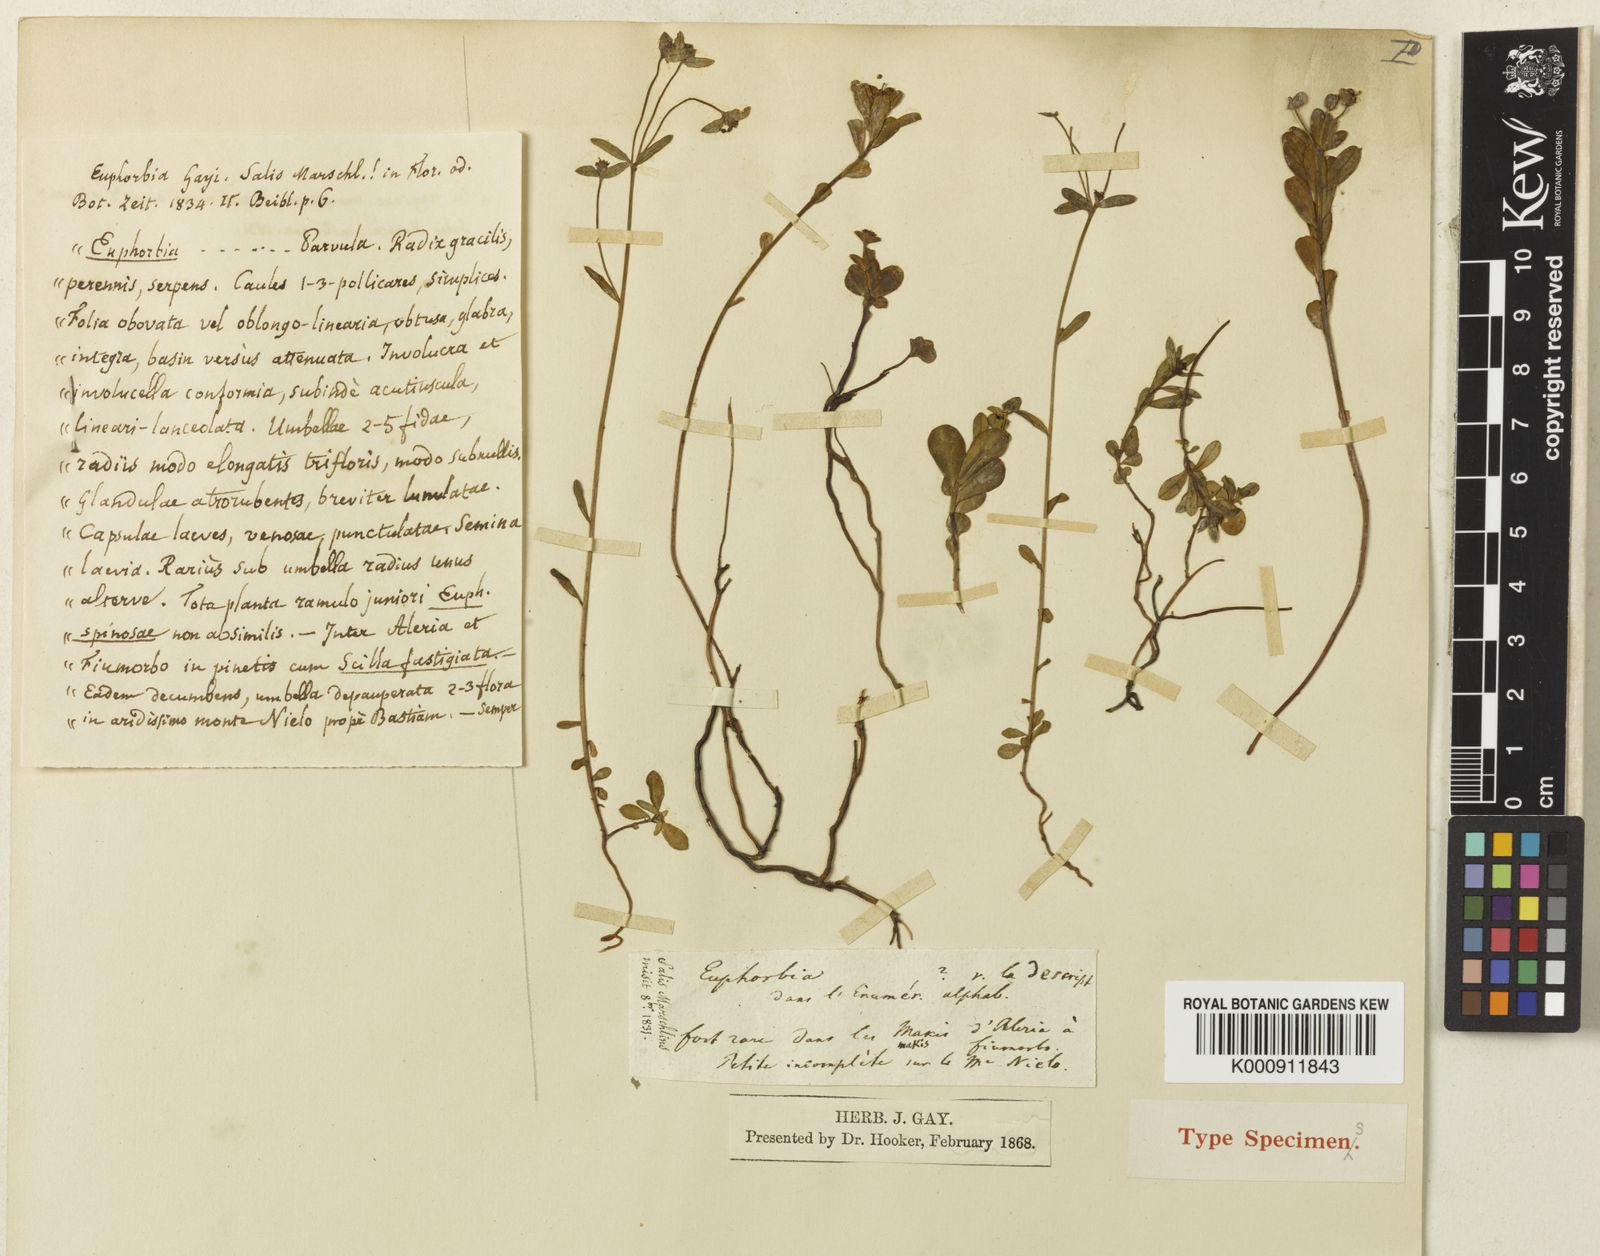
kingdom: Plantae
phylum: Tracheophyta
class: Magnoliopsida
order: Malpighiales
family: Euphorbiaceae
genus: Euphorbia
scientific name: Euphorbia gayi
